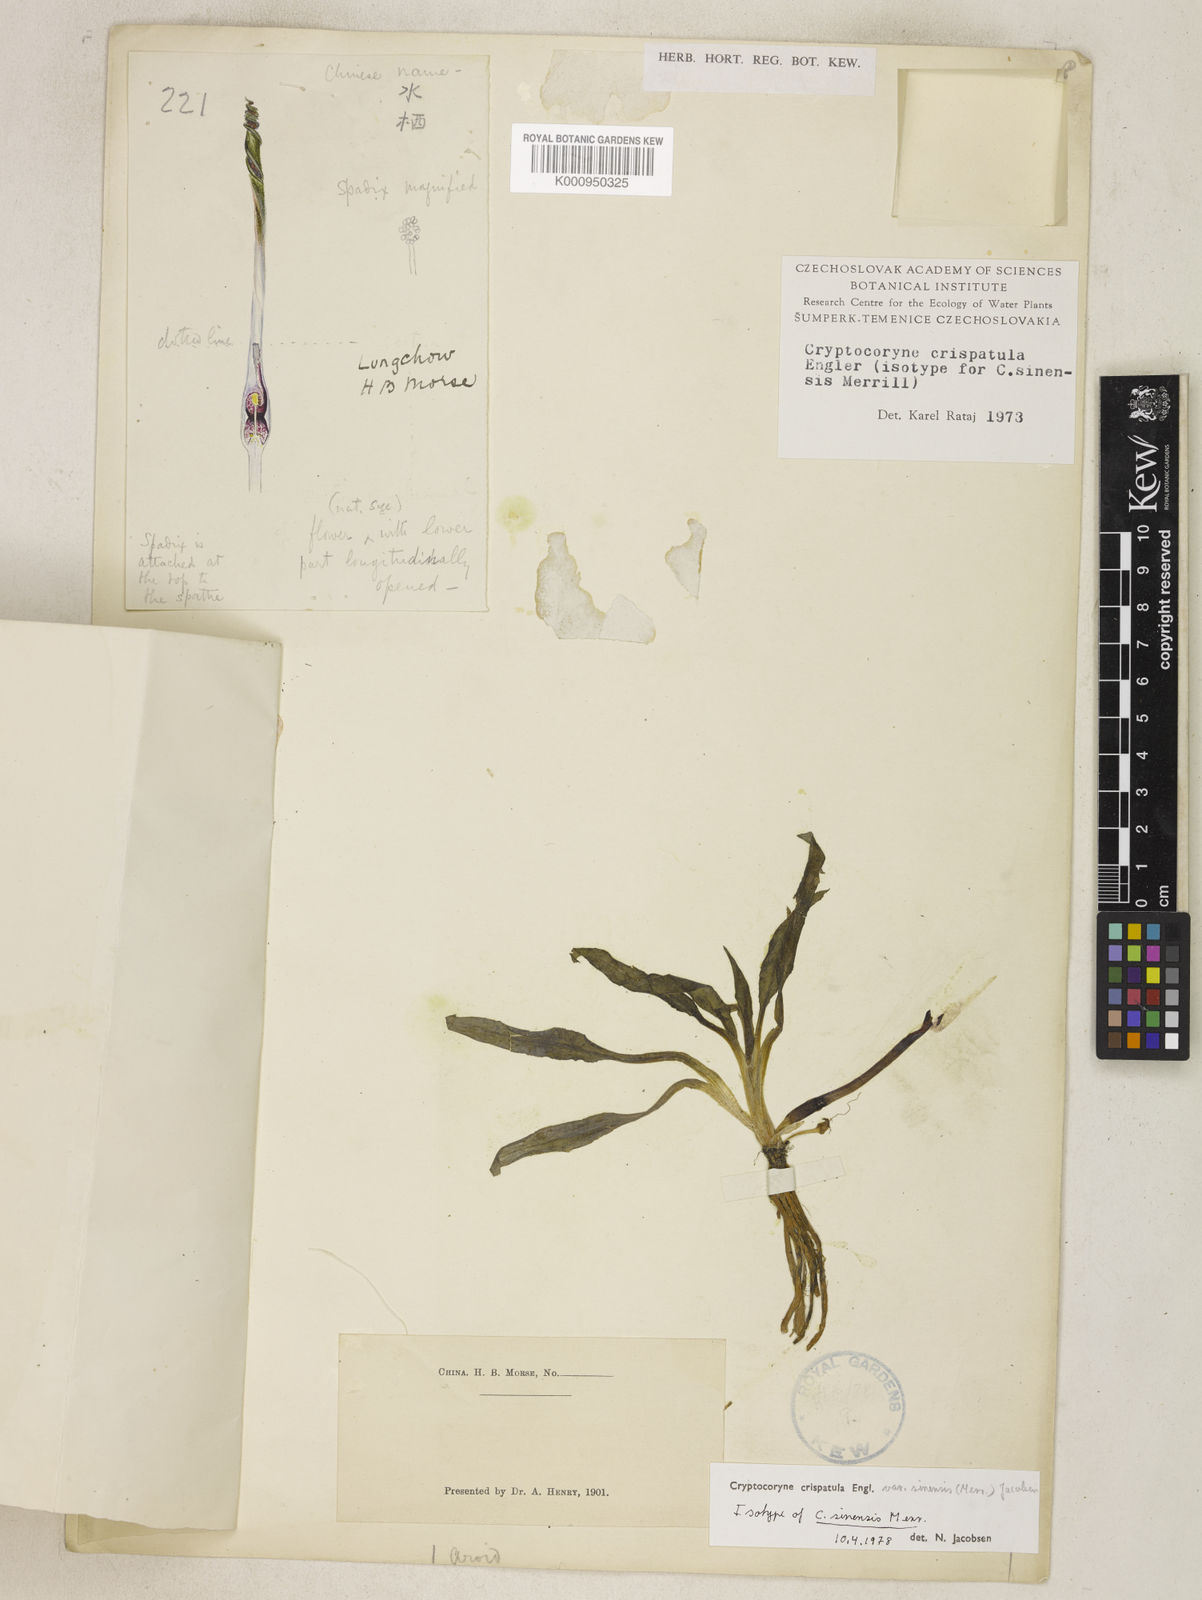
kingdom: Plantae
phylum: Tracheophyta
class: Liliopsida
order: Alismatales
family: Araceae
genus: Cryptocoryne
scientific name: Cryptocoryne crispatula
